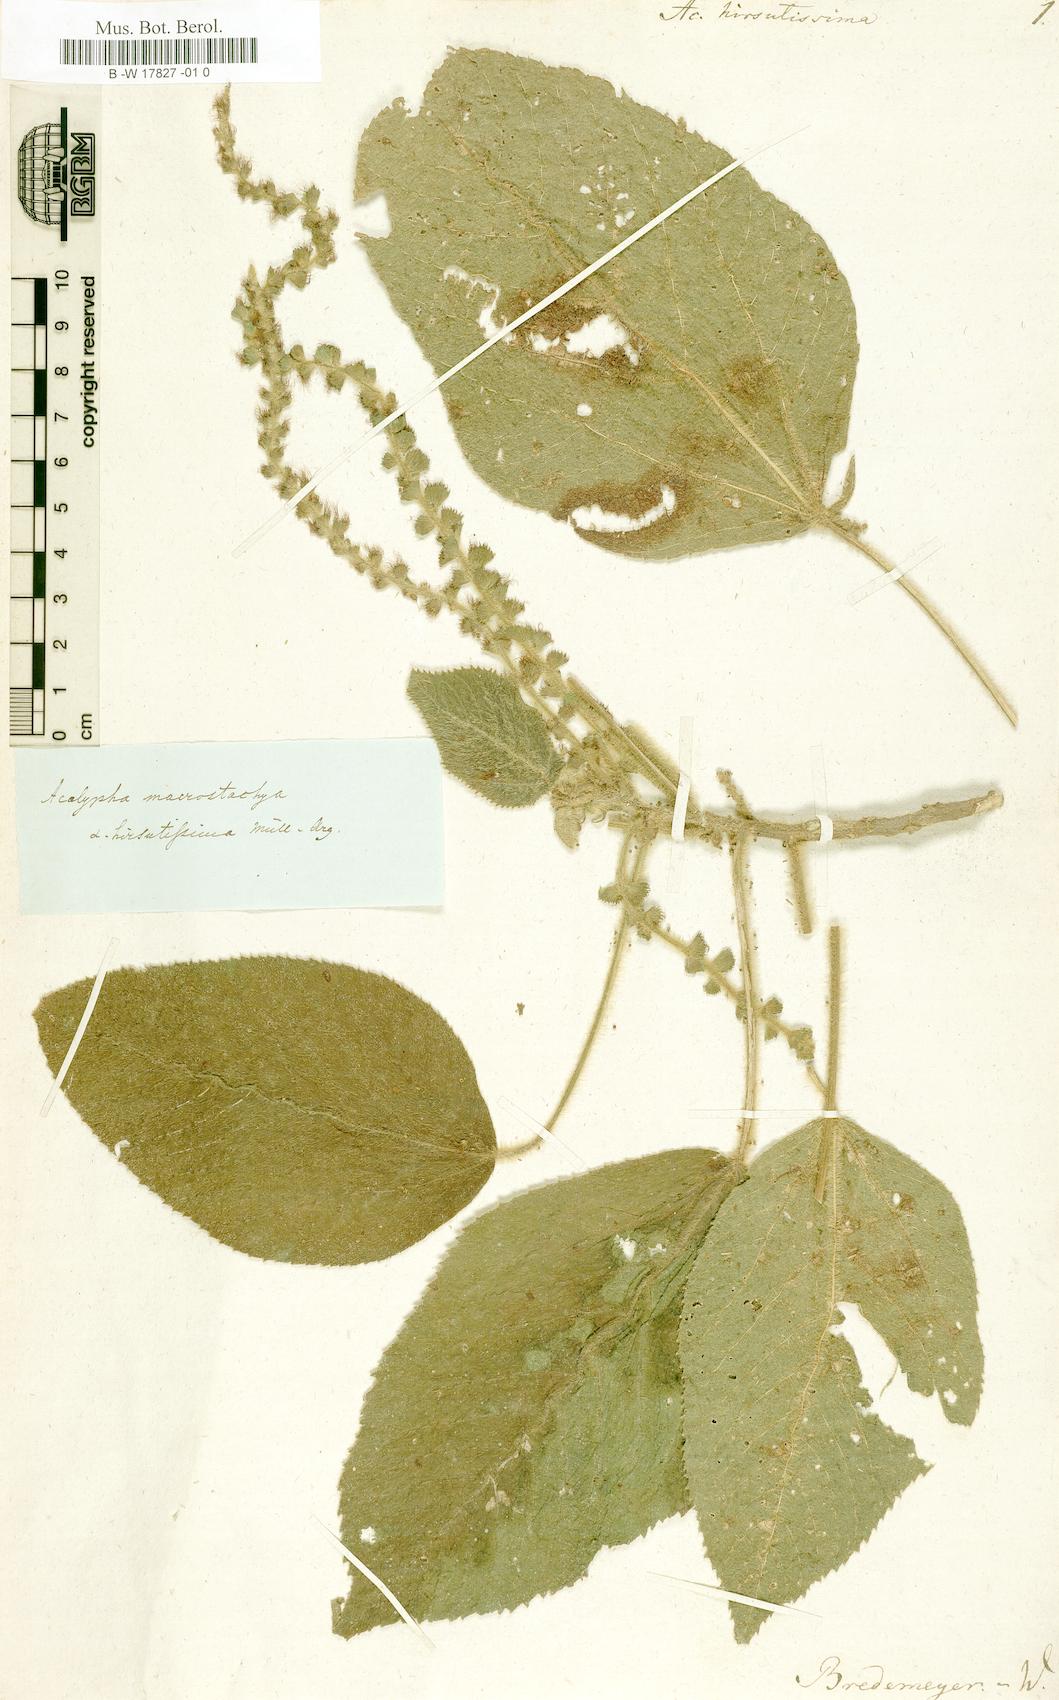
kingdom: Plantae
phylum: Tracheophyta
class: Magnoliopsida
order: Malpighiales
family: Euphorbiaceae
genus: Acalypha
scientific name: Acalypha macrostachya
